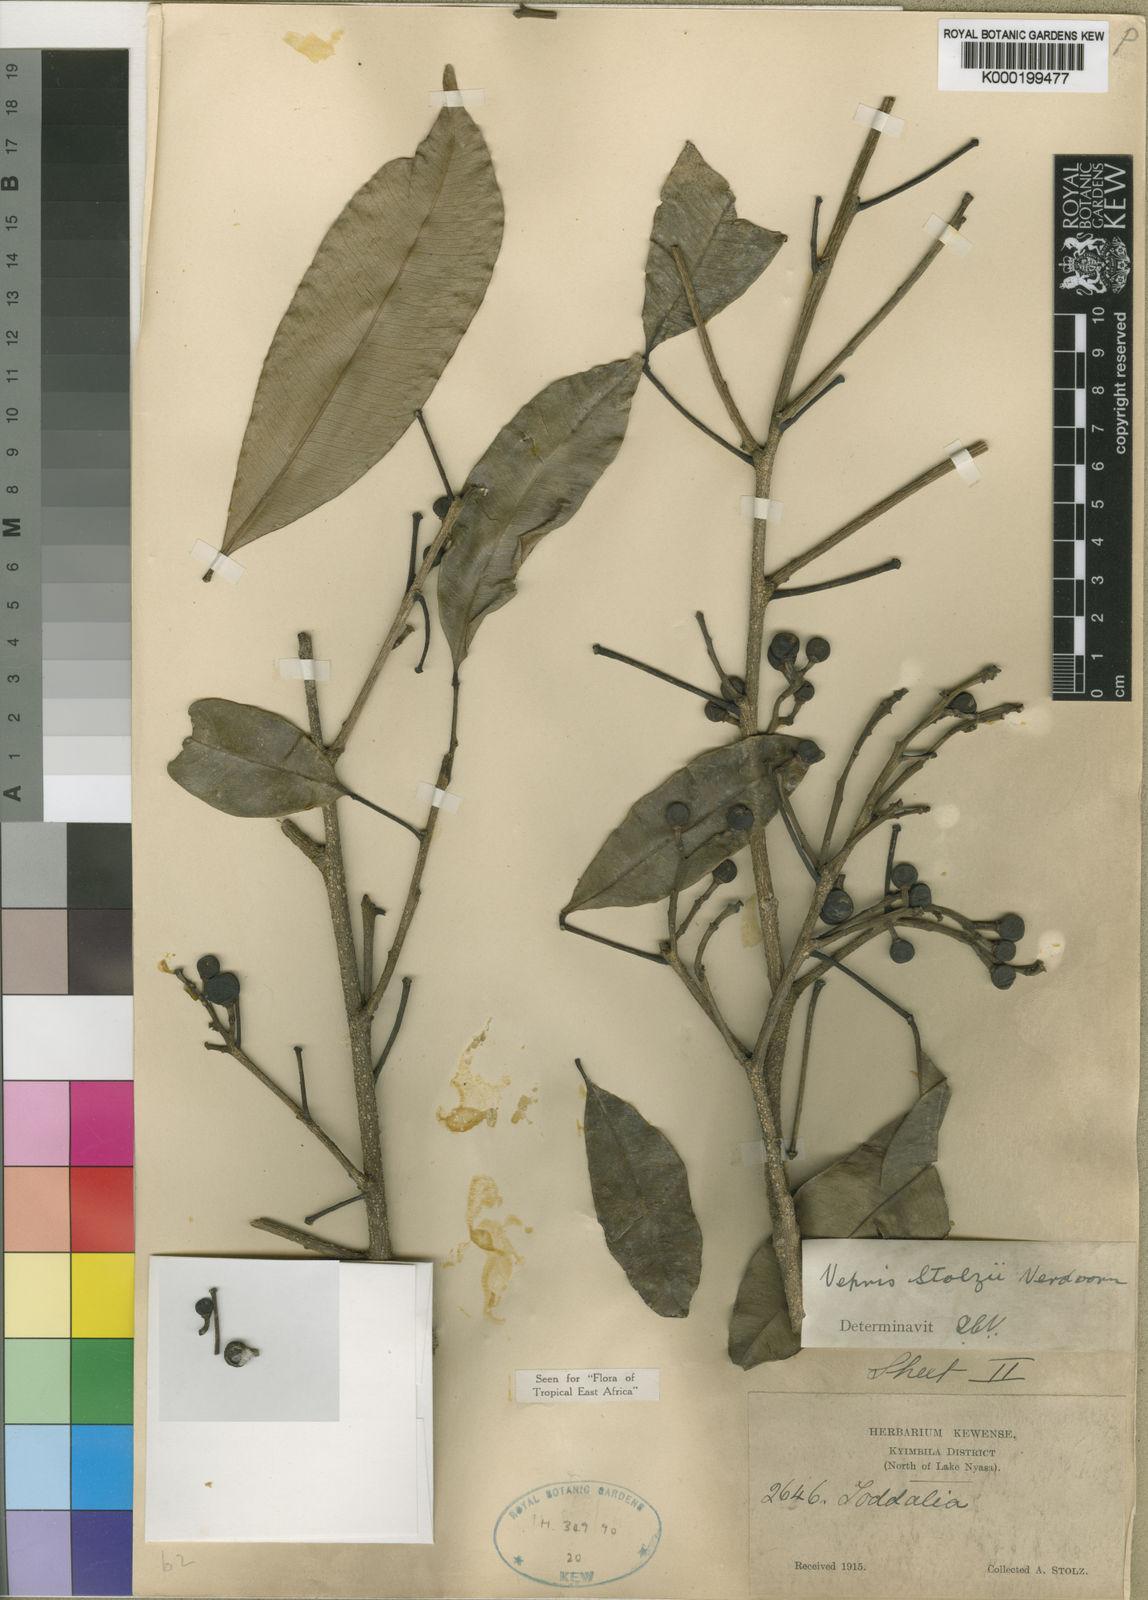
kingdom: Plantae
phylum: Tracheophyta
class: Magnoliopsida
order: Sapindales
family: Rutaceae
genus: Vepris
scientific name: Vepris stolzii
